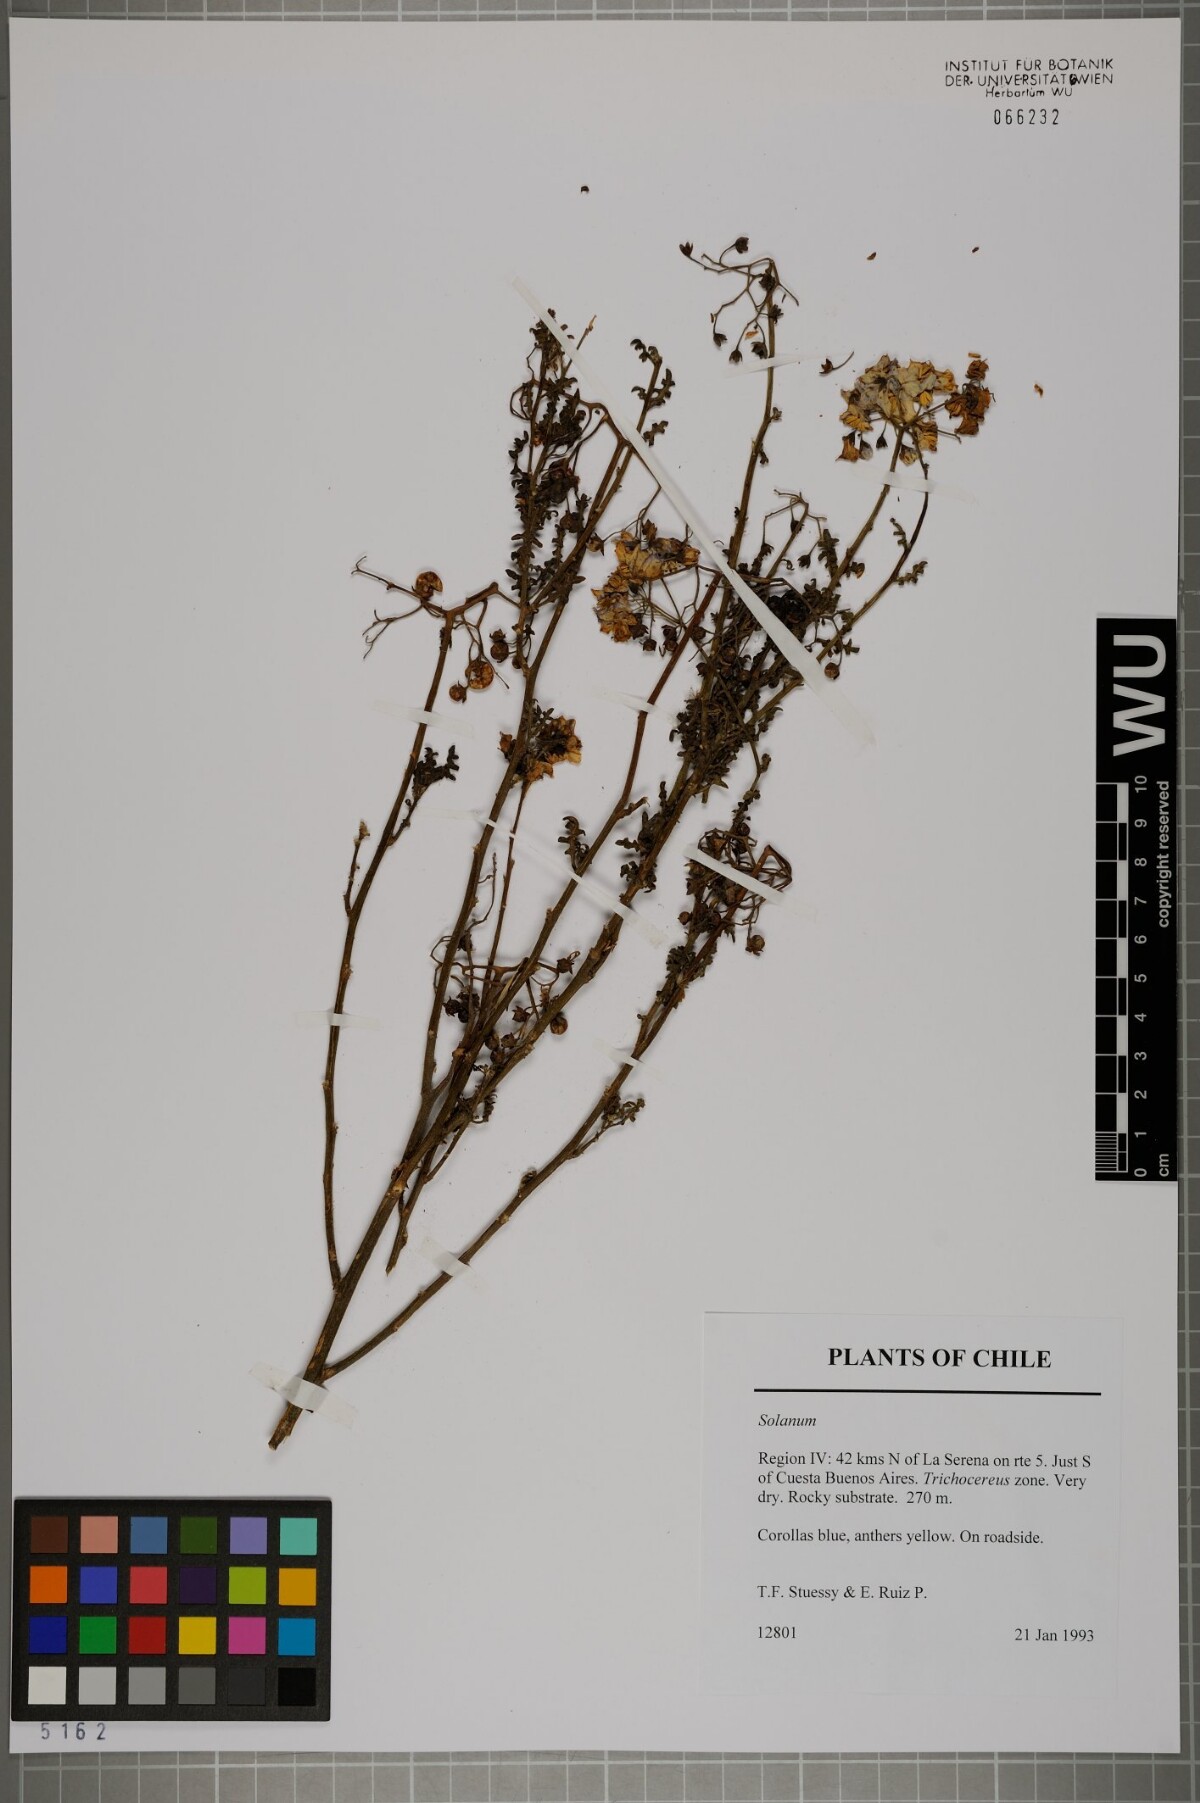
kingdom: Plantae
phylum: Tracheophyta
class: Magnoliopsida
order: Solanales
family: Solanaceae
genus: Solanum
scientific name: Solanum
